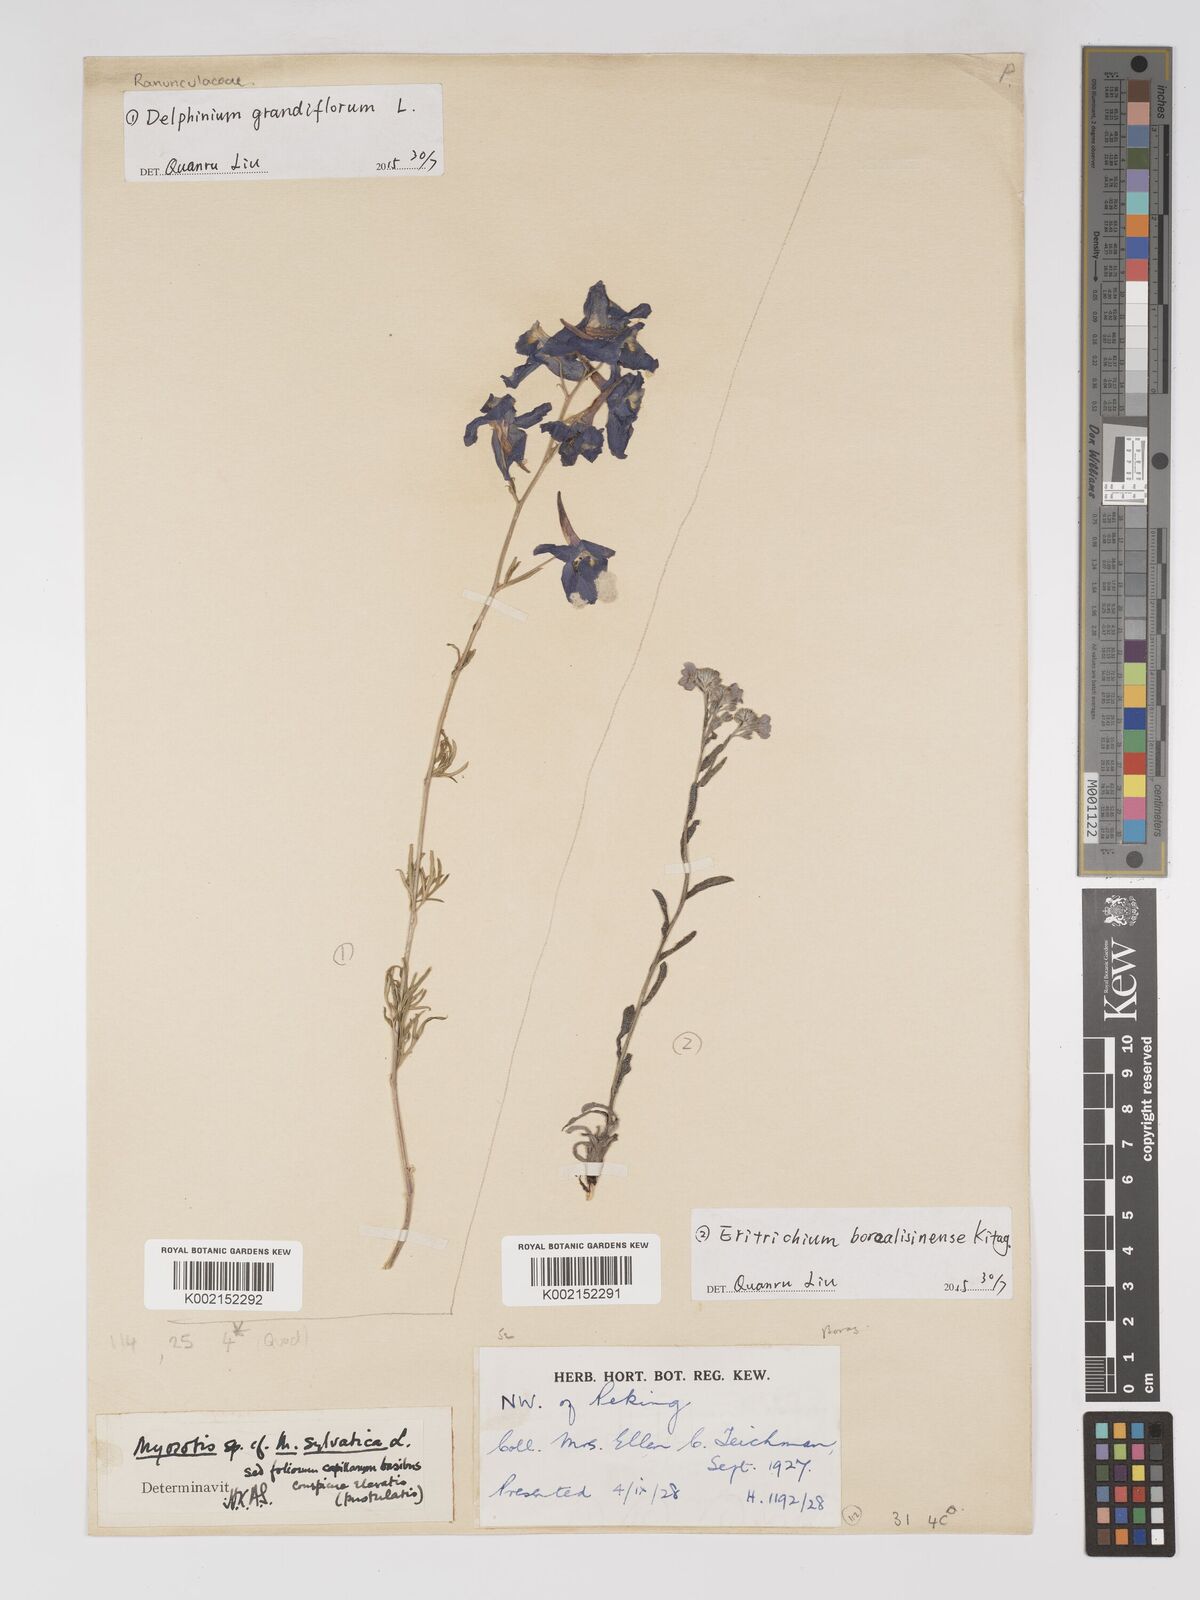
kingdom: Plantae
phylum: Tracheophyta
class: Magnoliopsida
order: Ranunculales
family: Ranunculaceae
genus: Delphinium
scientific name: Delphinium grandiflorum
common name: Siberian larkspur
